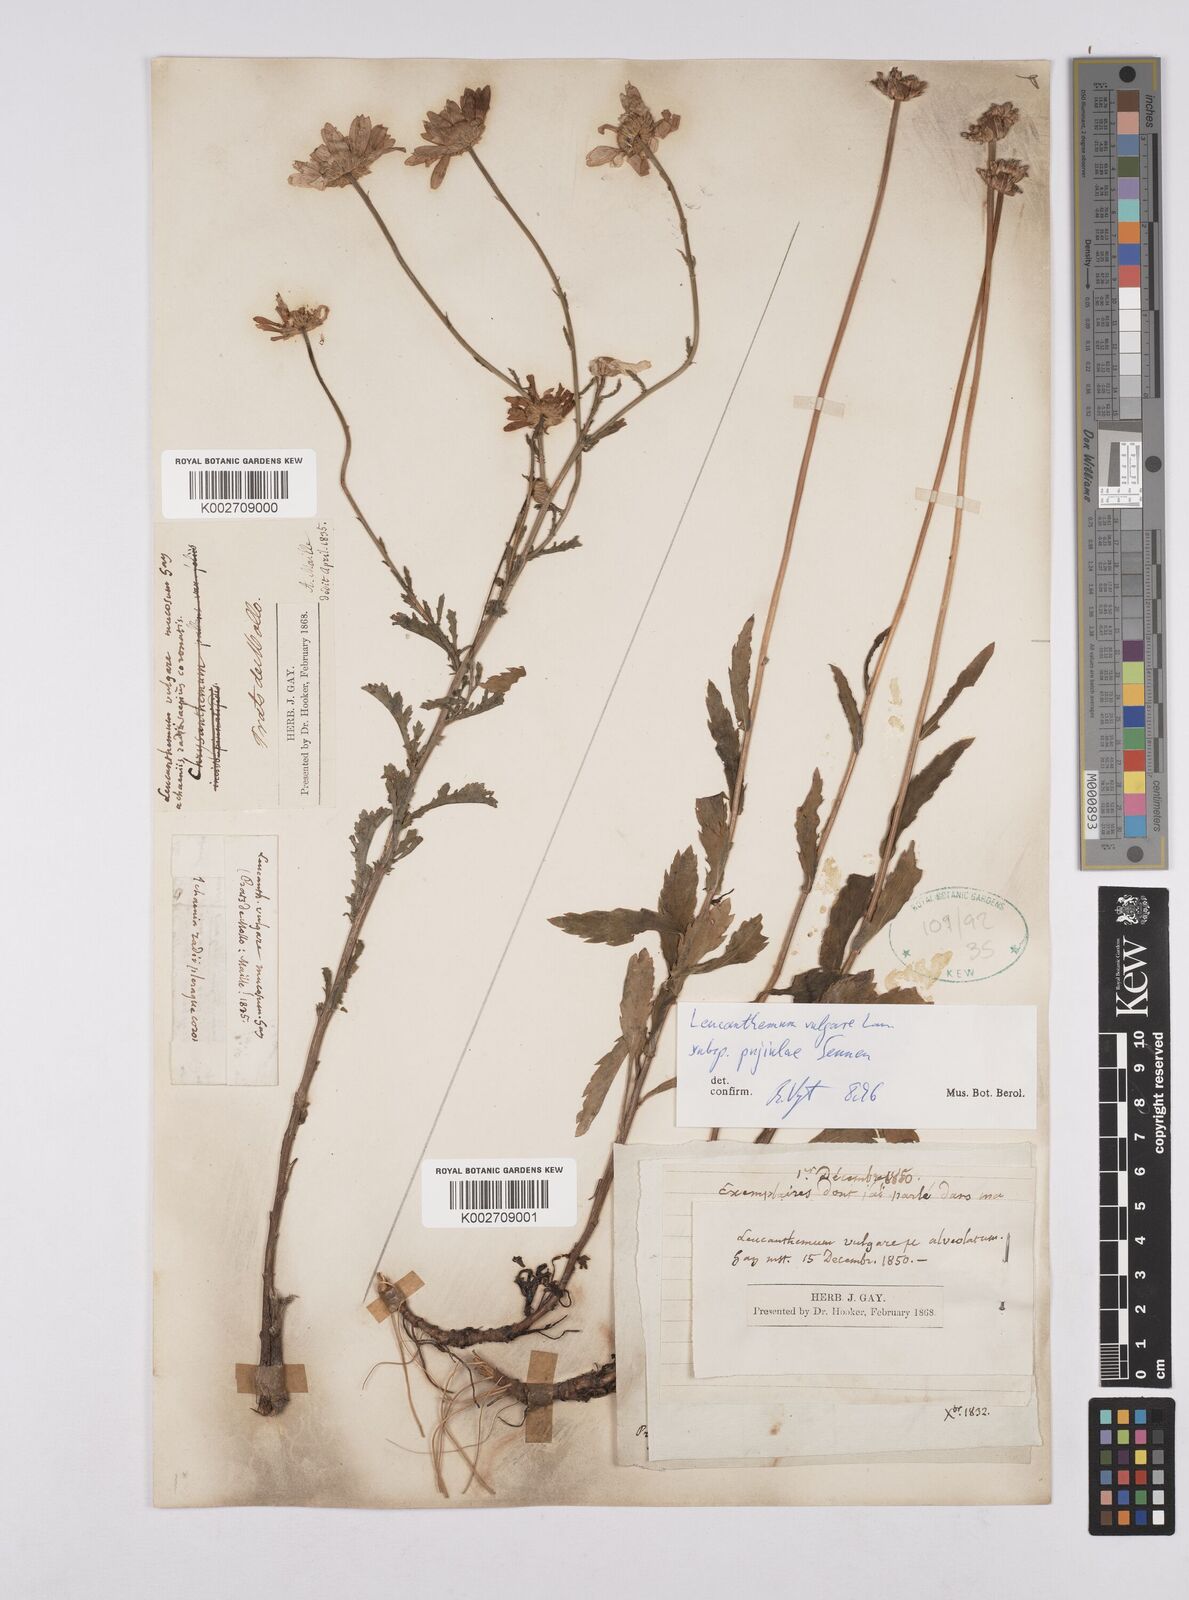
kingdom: Plantae
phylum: Tracheophyta
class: Magnoliopsida
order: Asterales
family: Asteraceae
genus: Leucanthemum
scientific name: Leucanthemum vulgare
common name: Oxeye daisy
